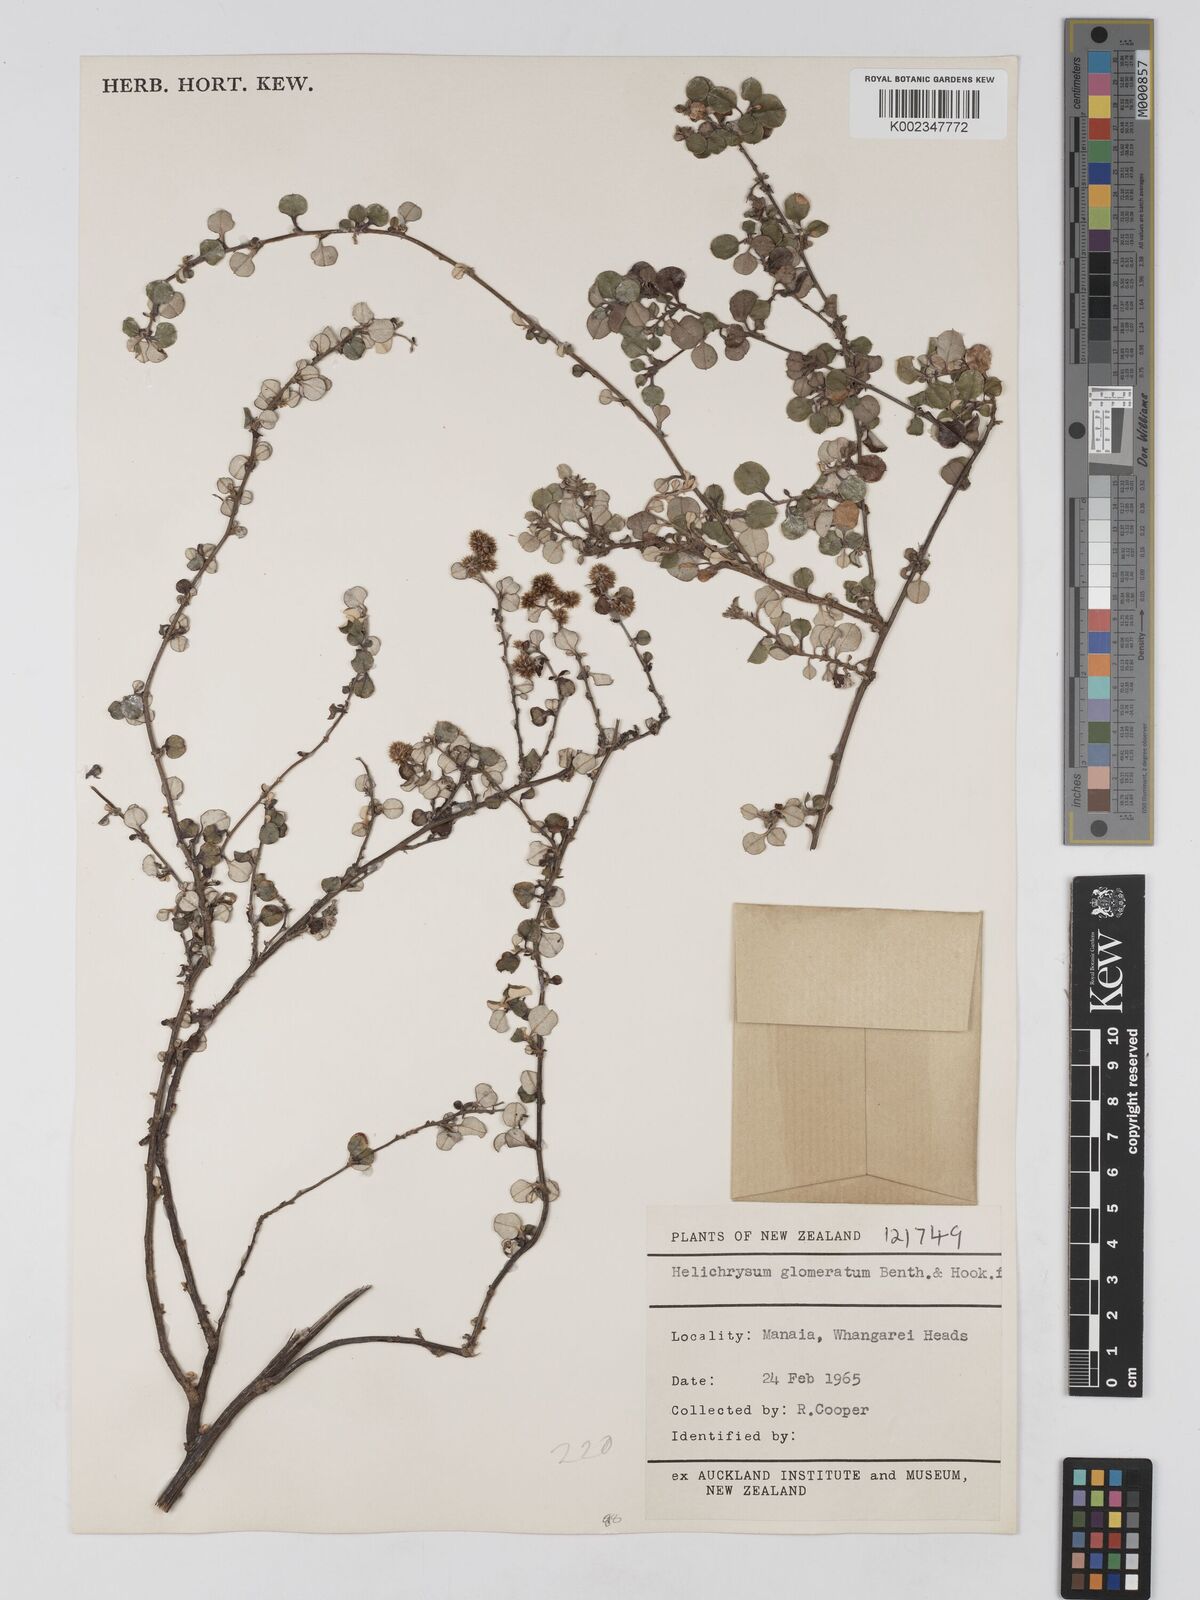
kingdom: Plantae
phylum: Tracheophyta
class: Magnoliopsida
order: Asterales
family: Asteraceae
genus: Ozothamnus
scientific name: Ozothamnus glomeratus
